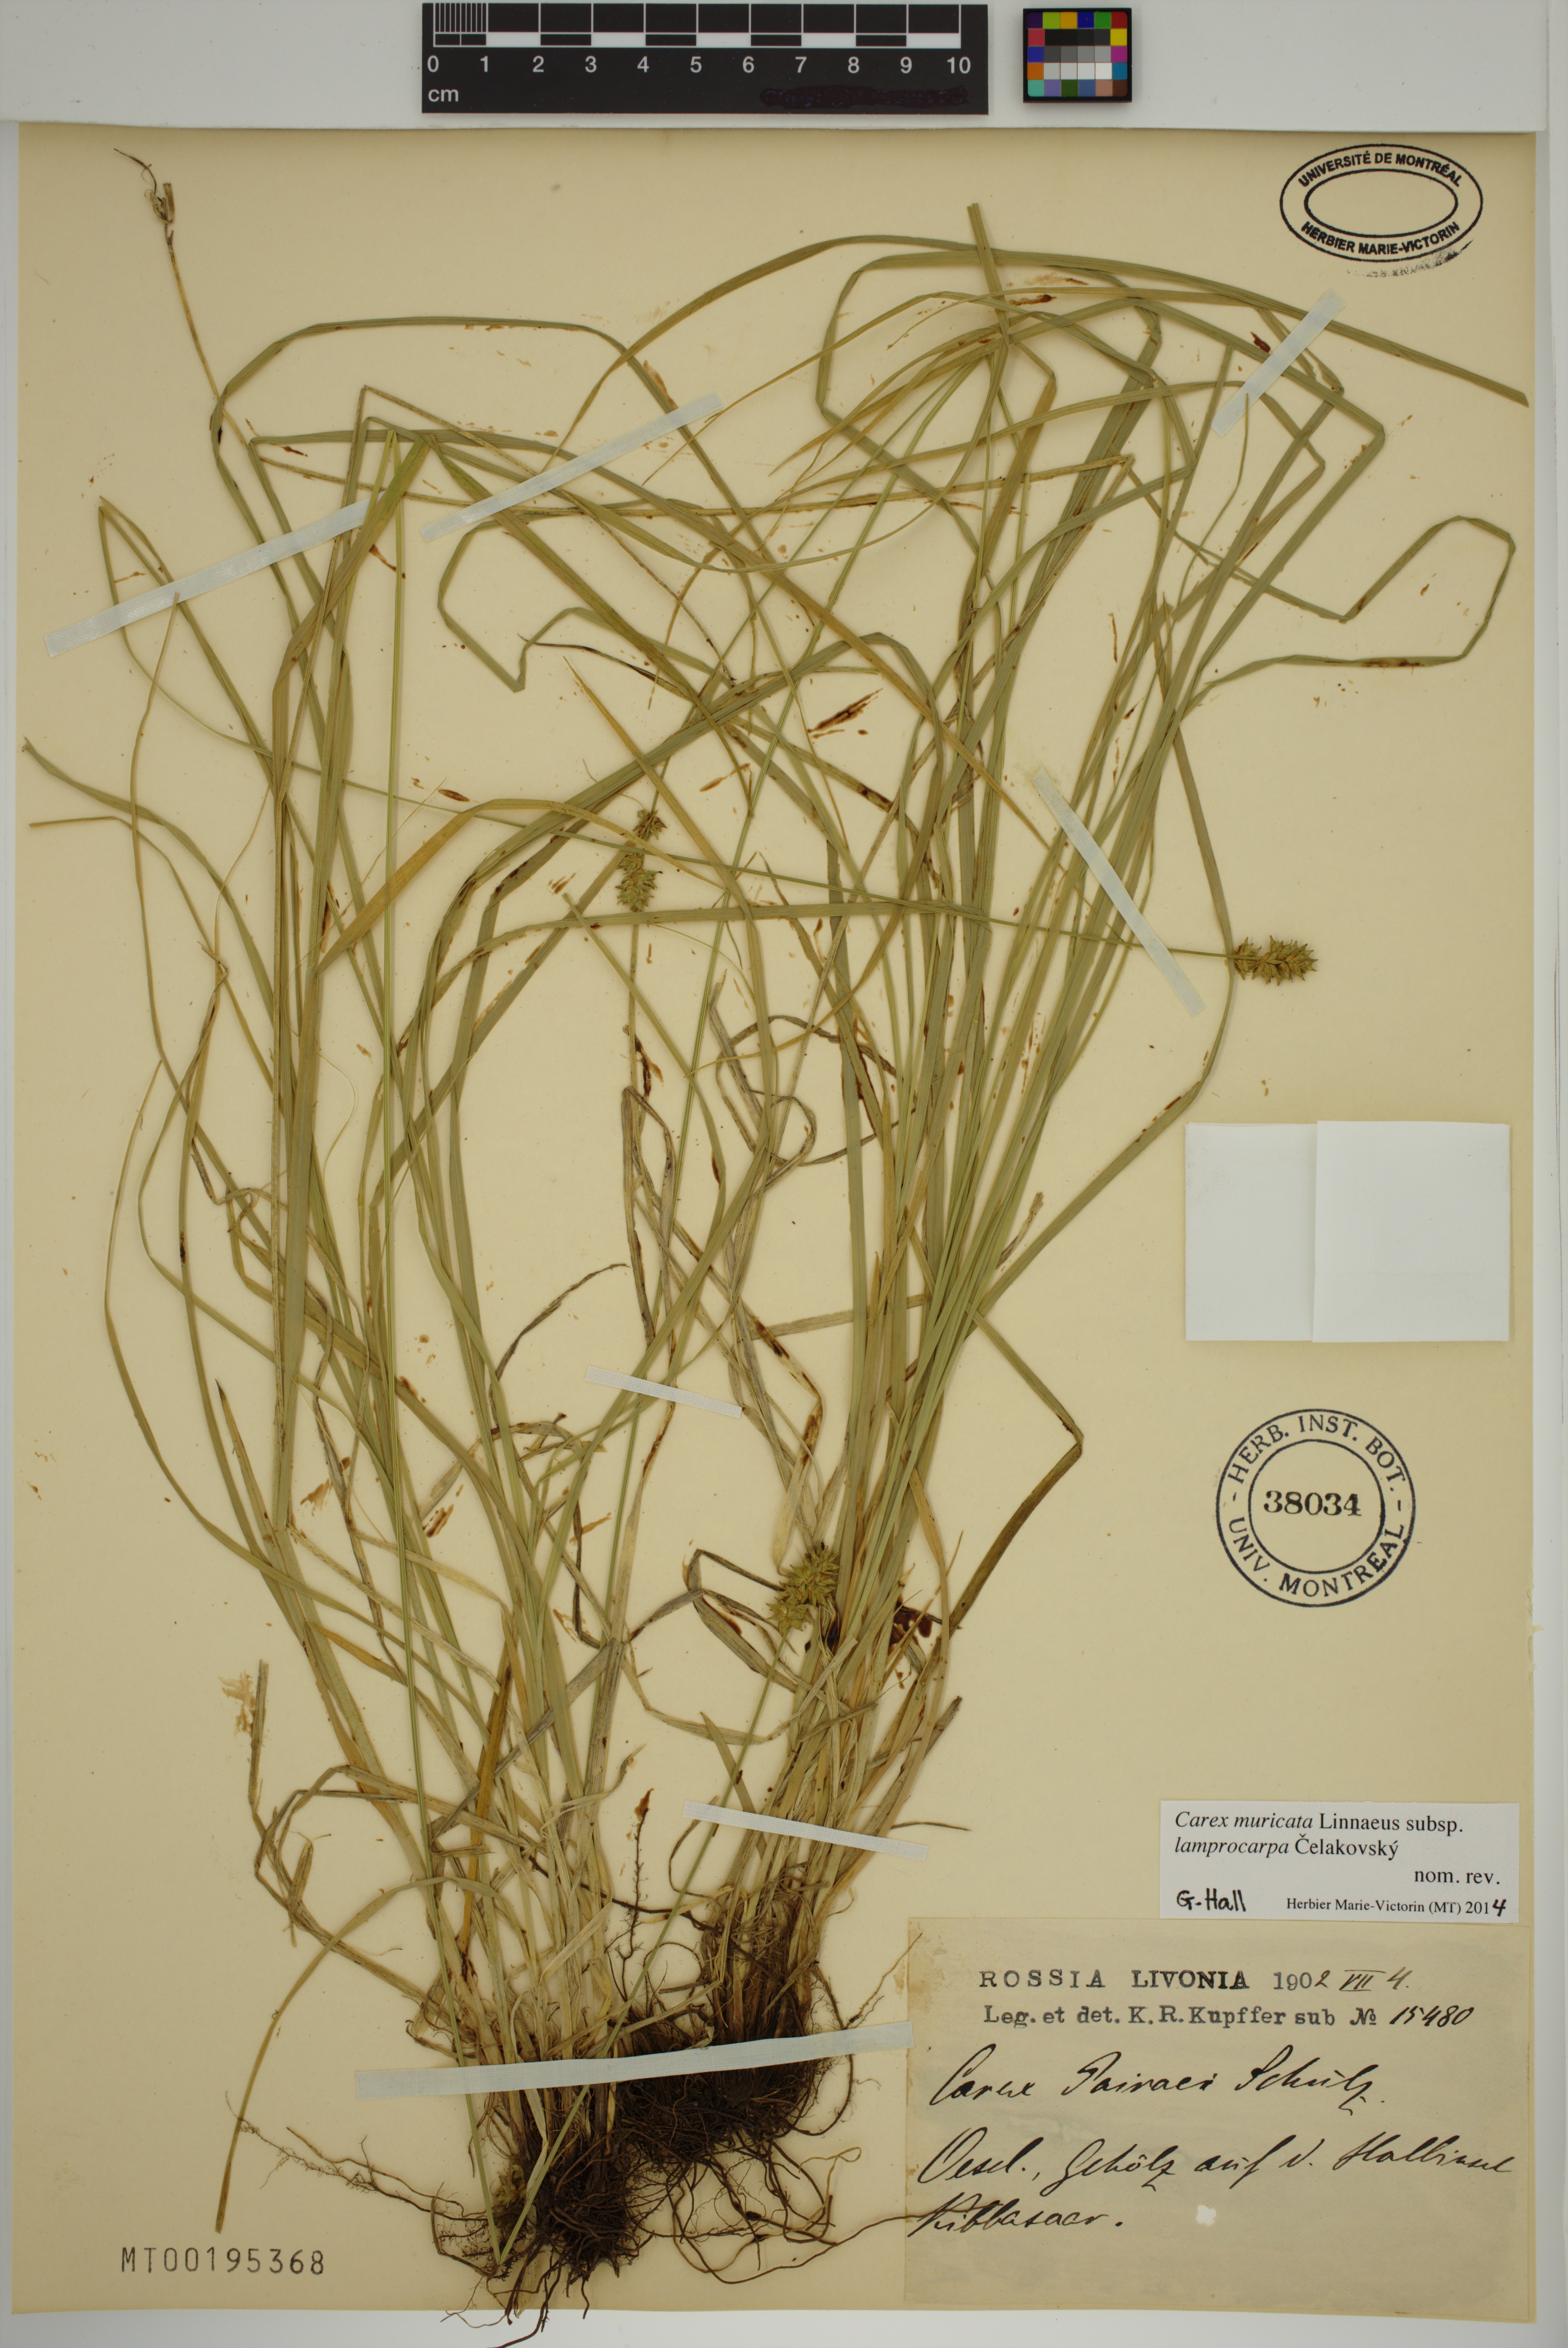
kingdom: Plantae
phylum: Tracheophyta
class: Liliopsida
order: Poales
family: Cyperaceae
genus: Carex
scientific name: Carex muricata
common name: Rough sedge
